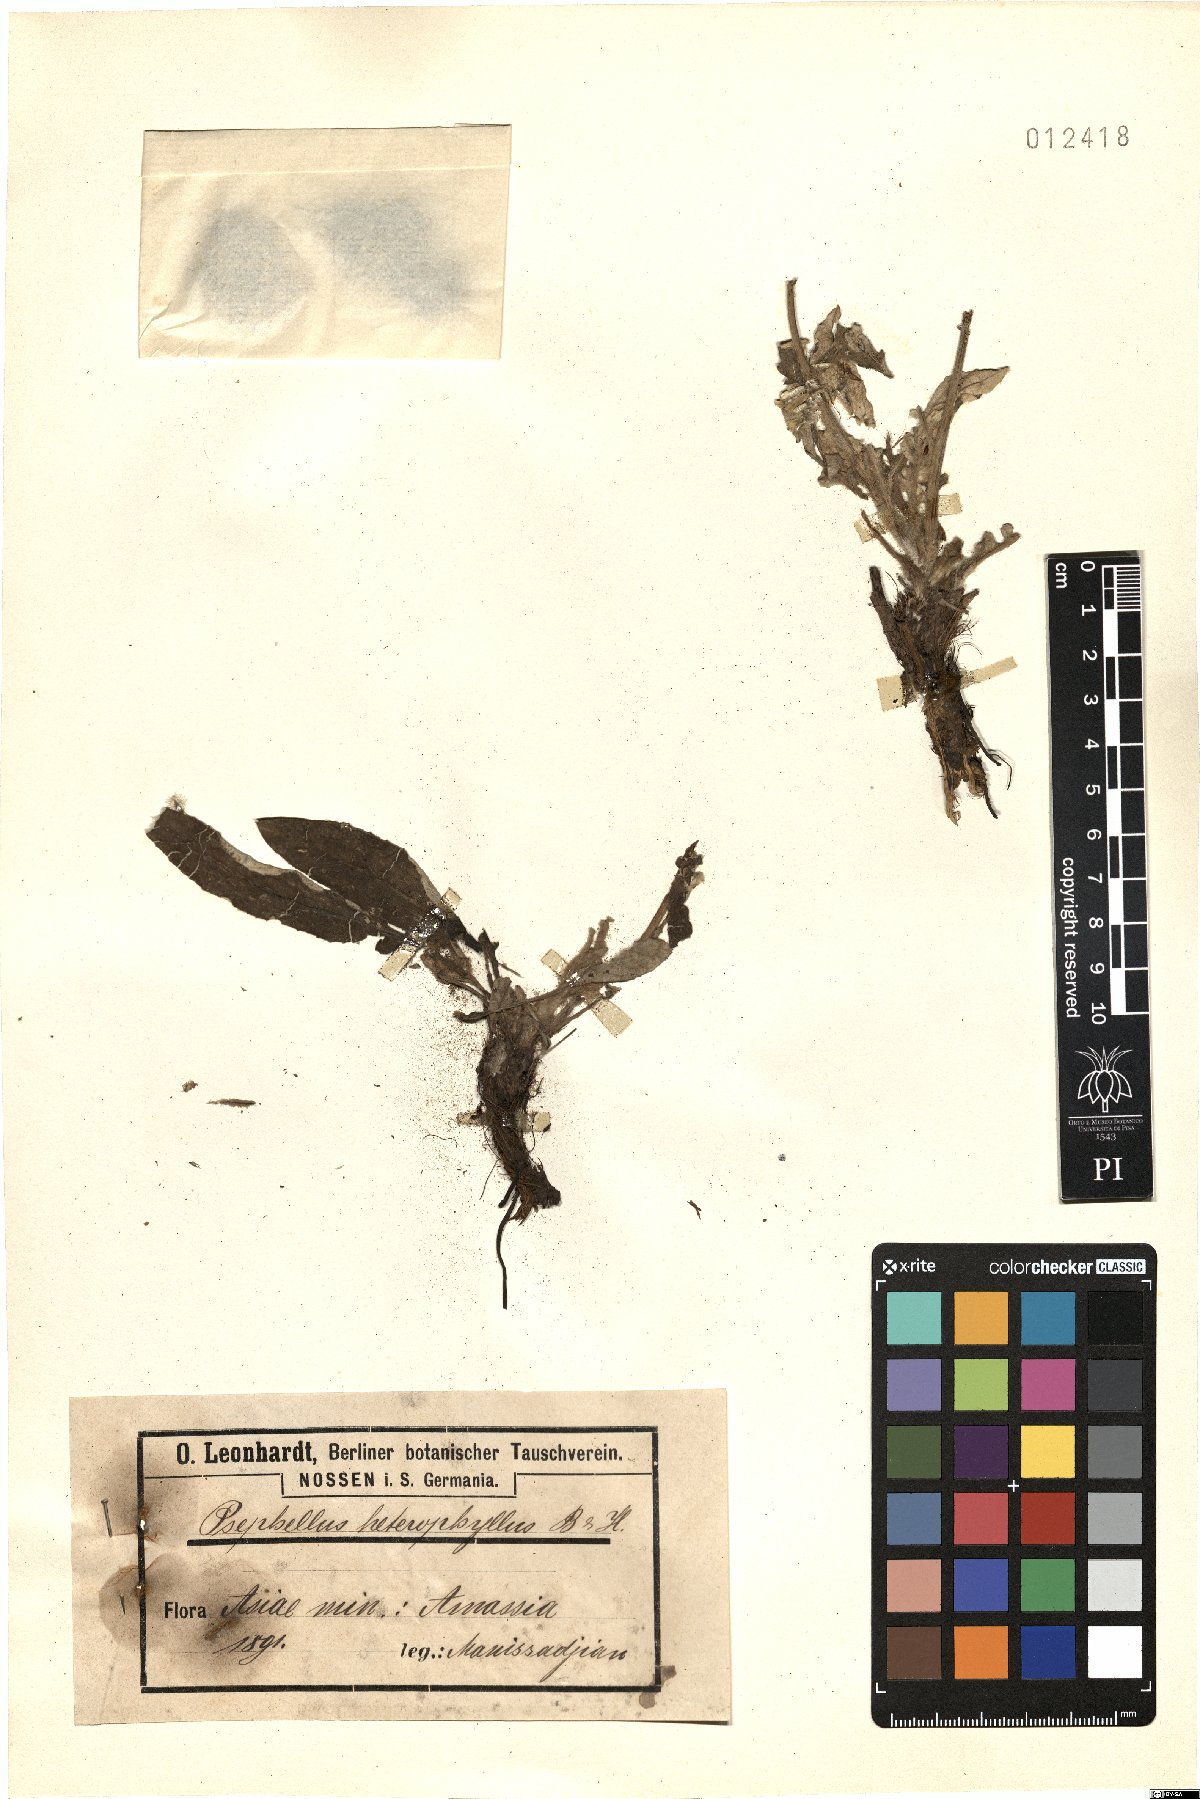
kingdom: Plantae
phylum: Tracheophyta
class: Magnoliopsida
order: Asterales
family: Asteraceae
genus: Psephellus
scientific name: Psephellus hypoleucus
